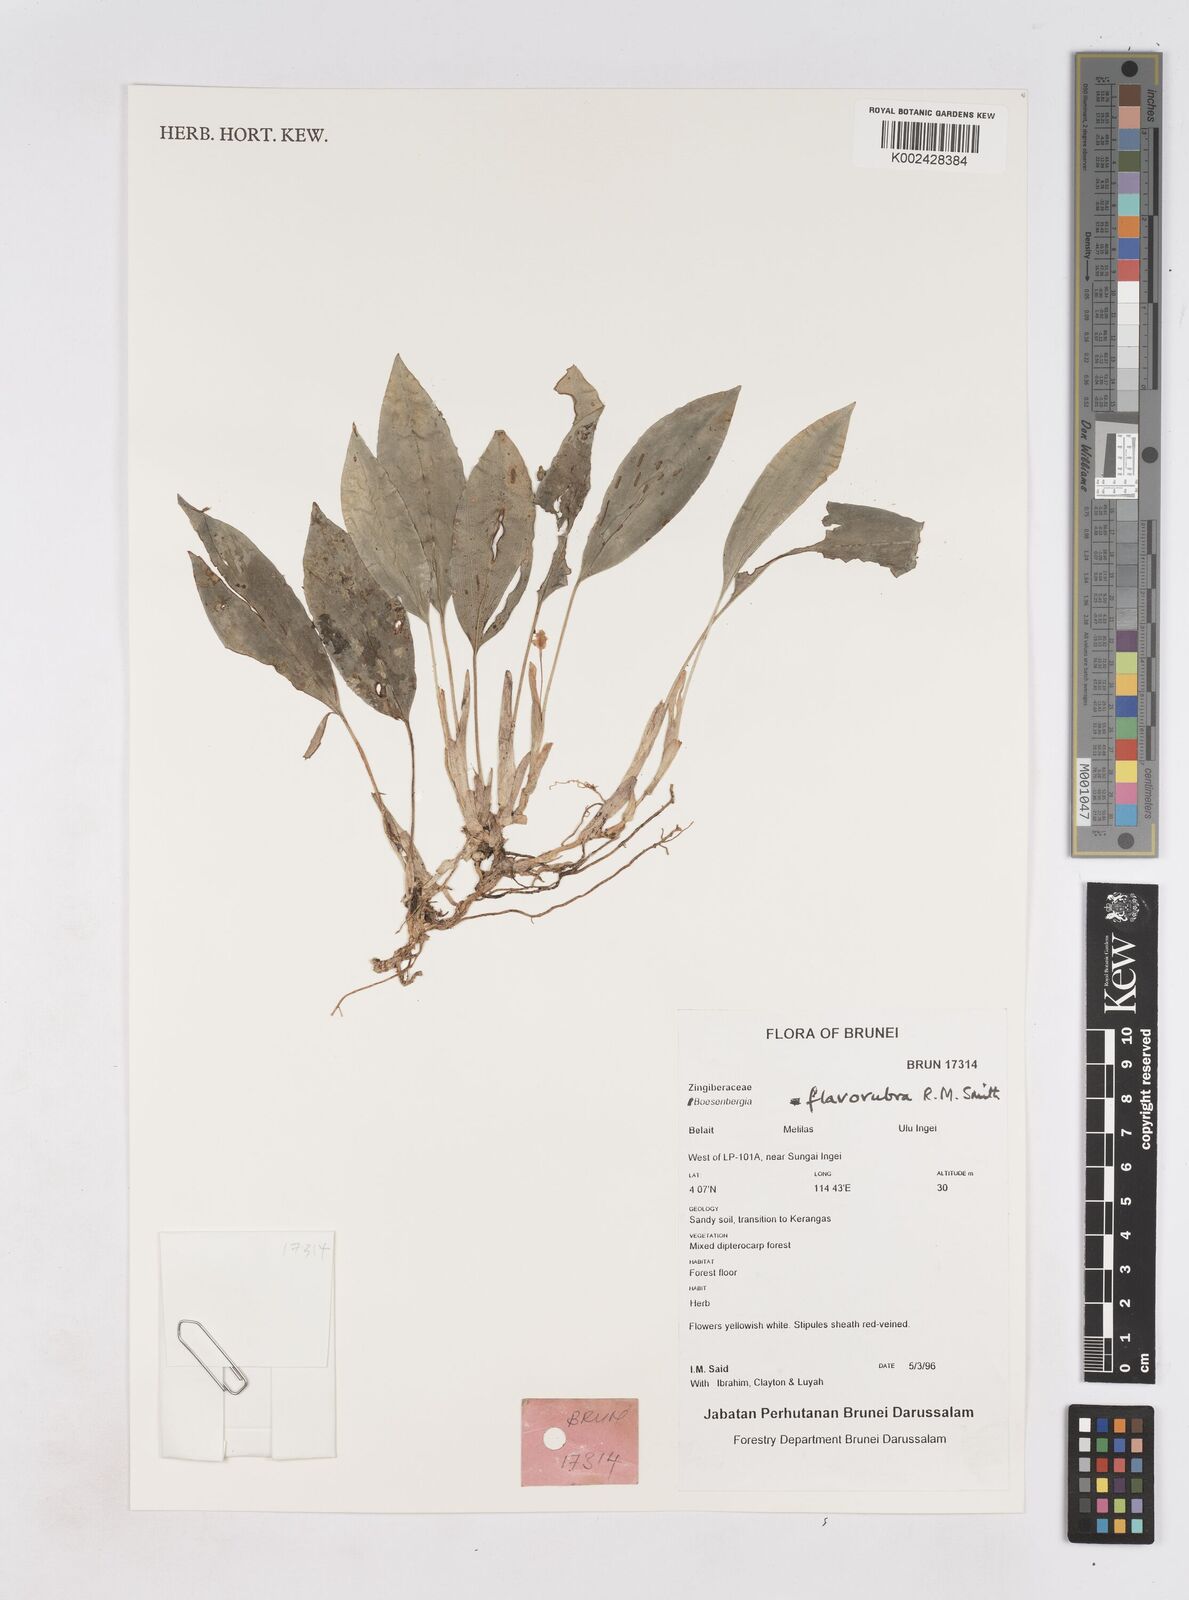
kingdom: Plantae
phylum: Tracheophyta
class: Liliopsida
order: Zingiberales
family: Zingiberaceae
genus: Boesenbergia
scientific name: Boesenbergia flavorubra
